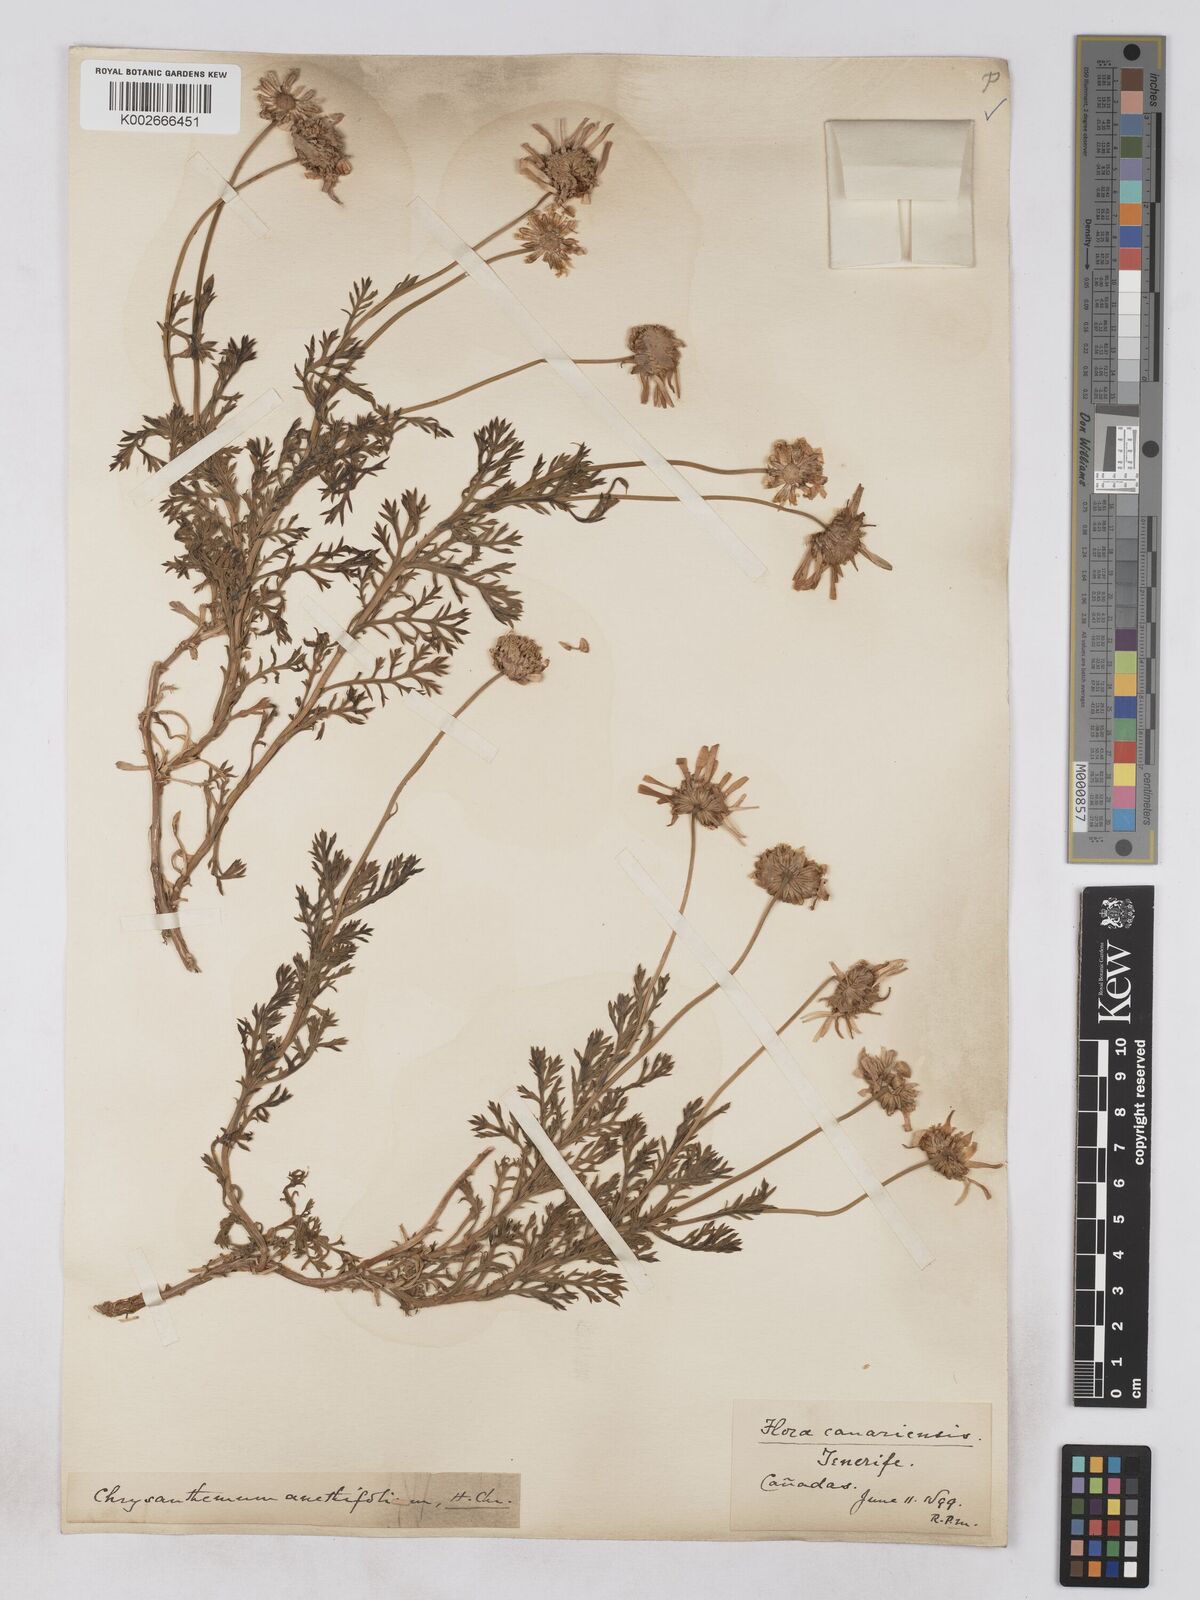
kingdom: Plantae
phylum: Tracheophyta
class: Magnoliopsida
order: Asterales
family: Asteraceae
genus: Argyranthemum
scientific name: Argyranthemum tenerifae
